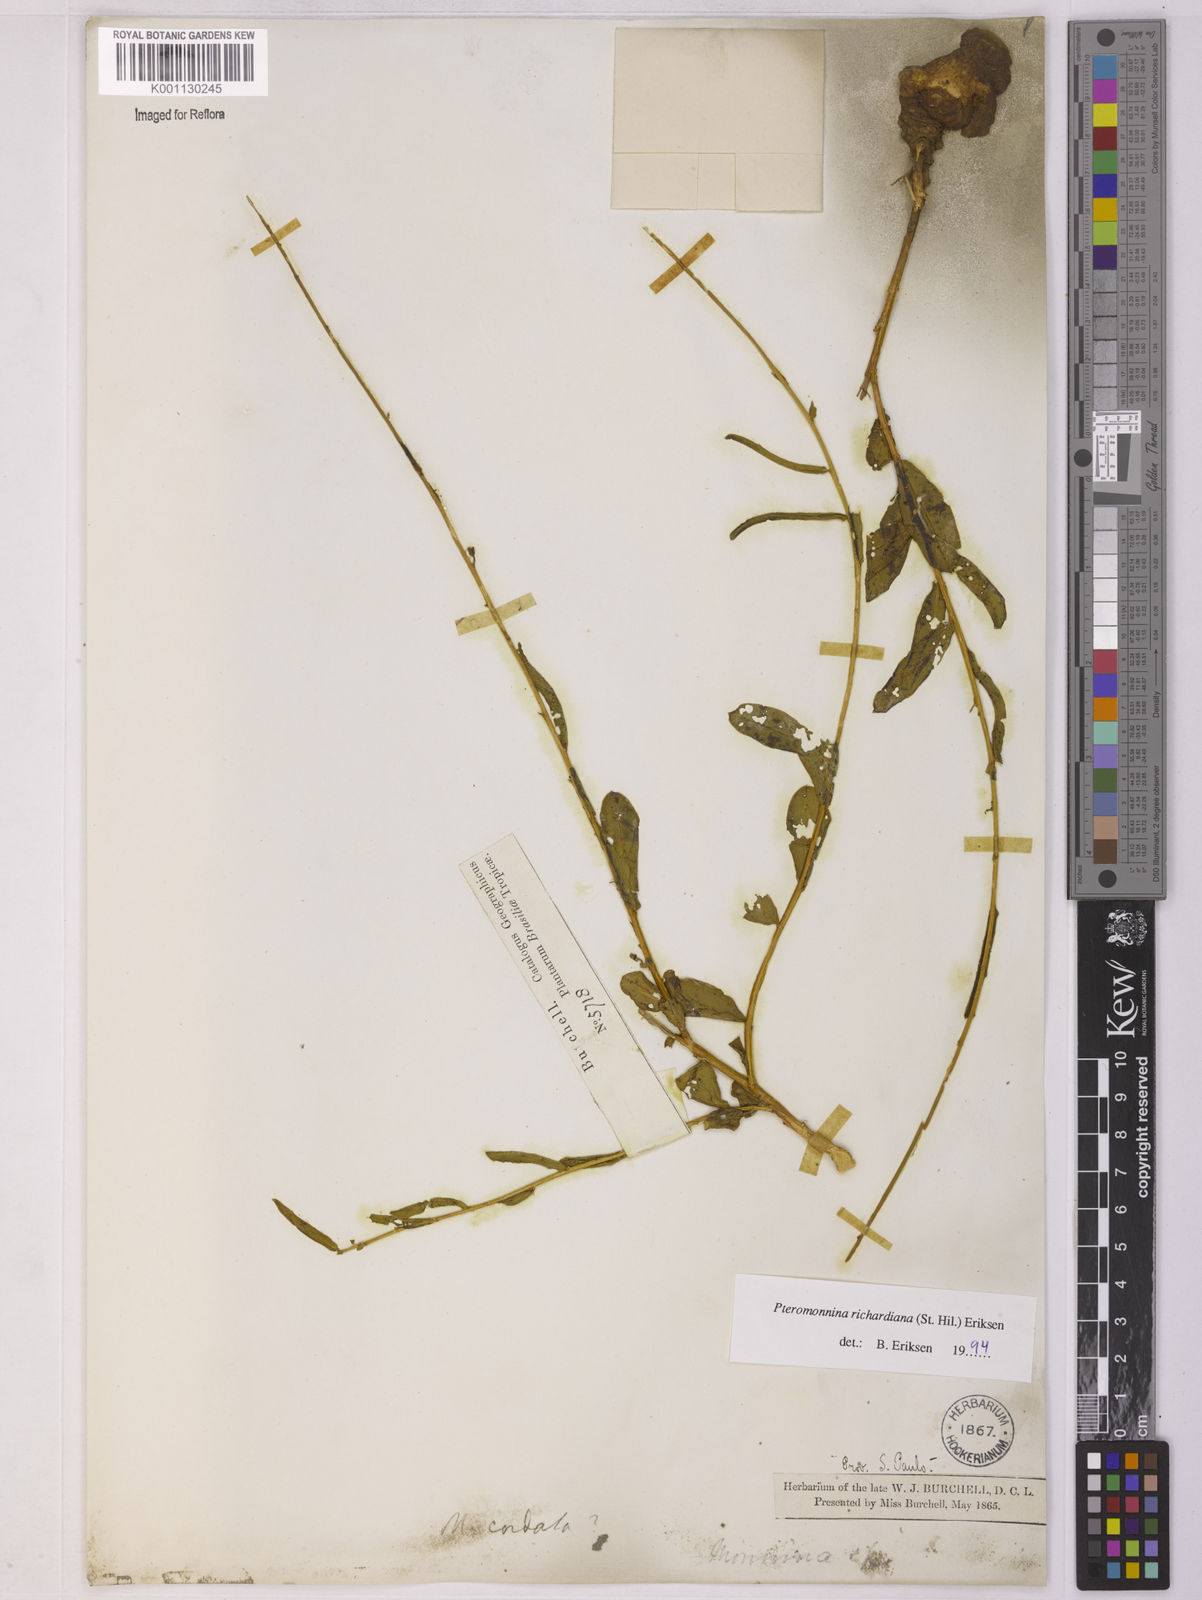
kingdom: Plantae
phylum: Tracheophyta
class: Magnoliopsida
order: Fabales
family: Polygalaceae
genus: Monnina
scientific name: Monnina richardiana
